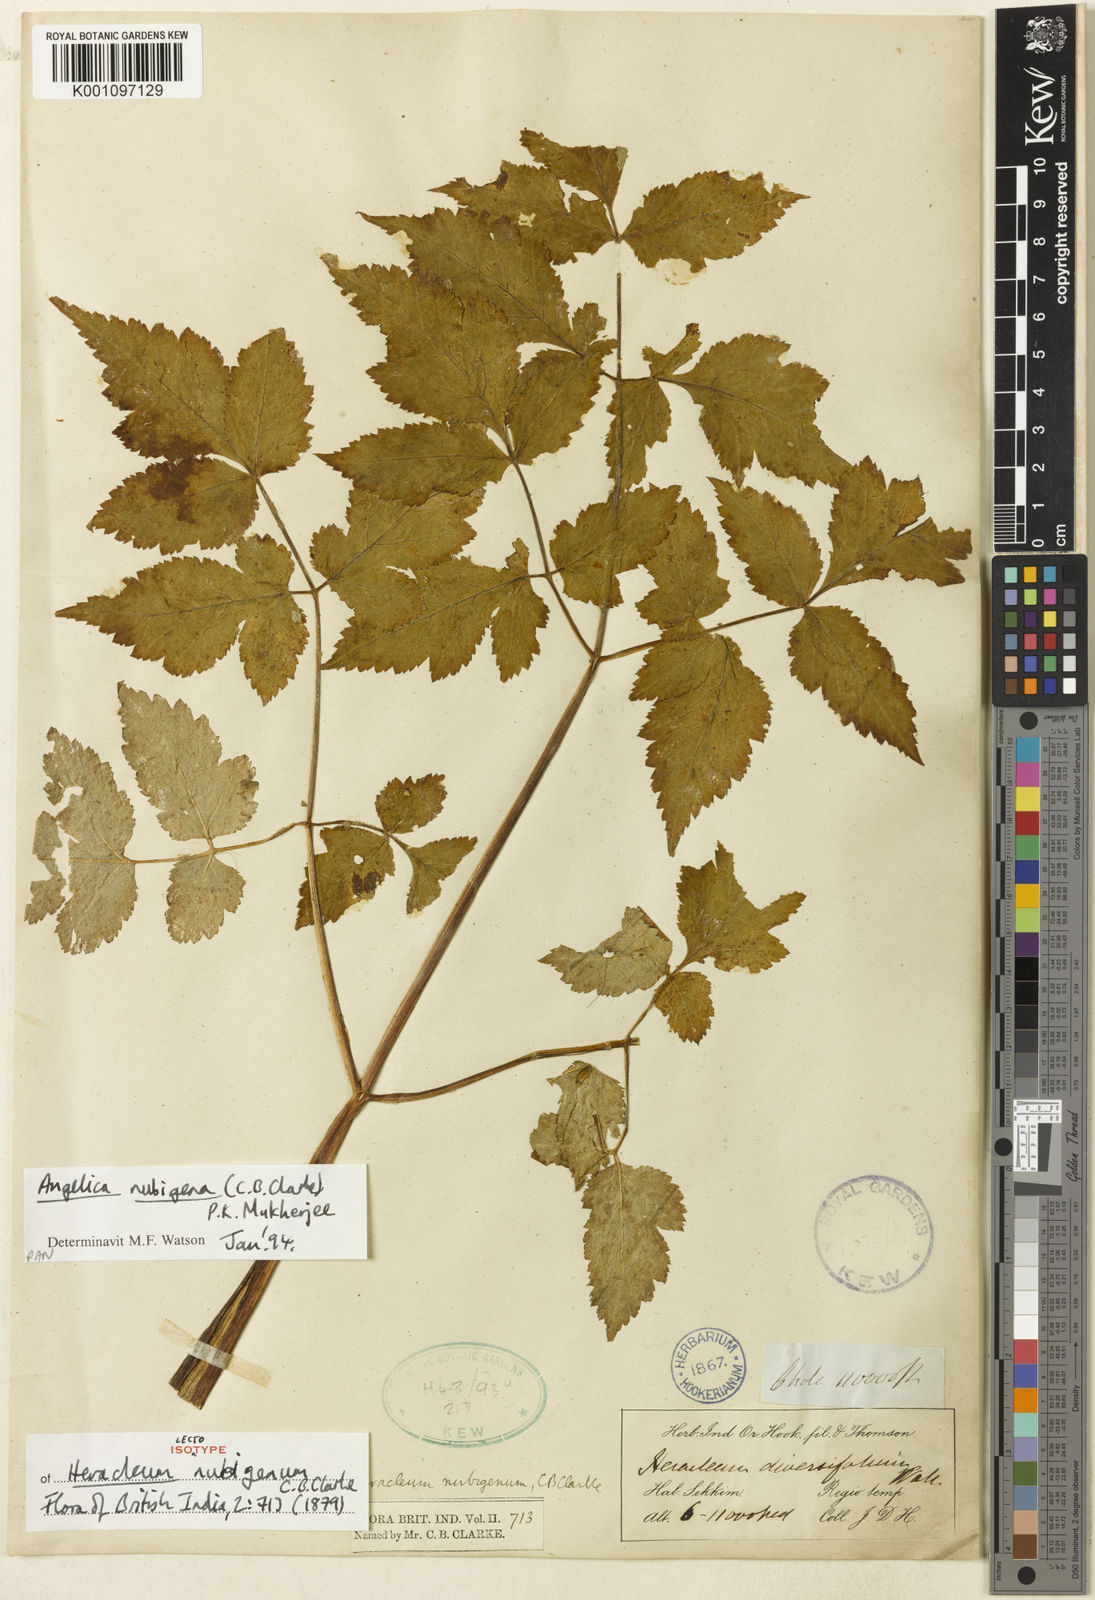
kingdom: Plantae
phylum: Tracheophyta
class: Magnoliopsida
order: Apiales
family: Apiaceae
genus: Angelica
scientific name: Angelica nubigena
